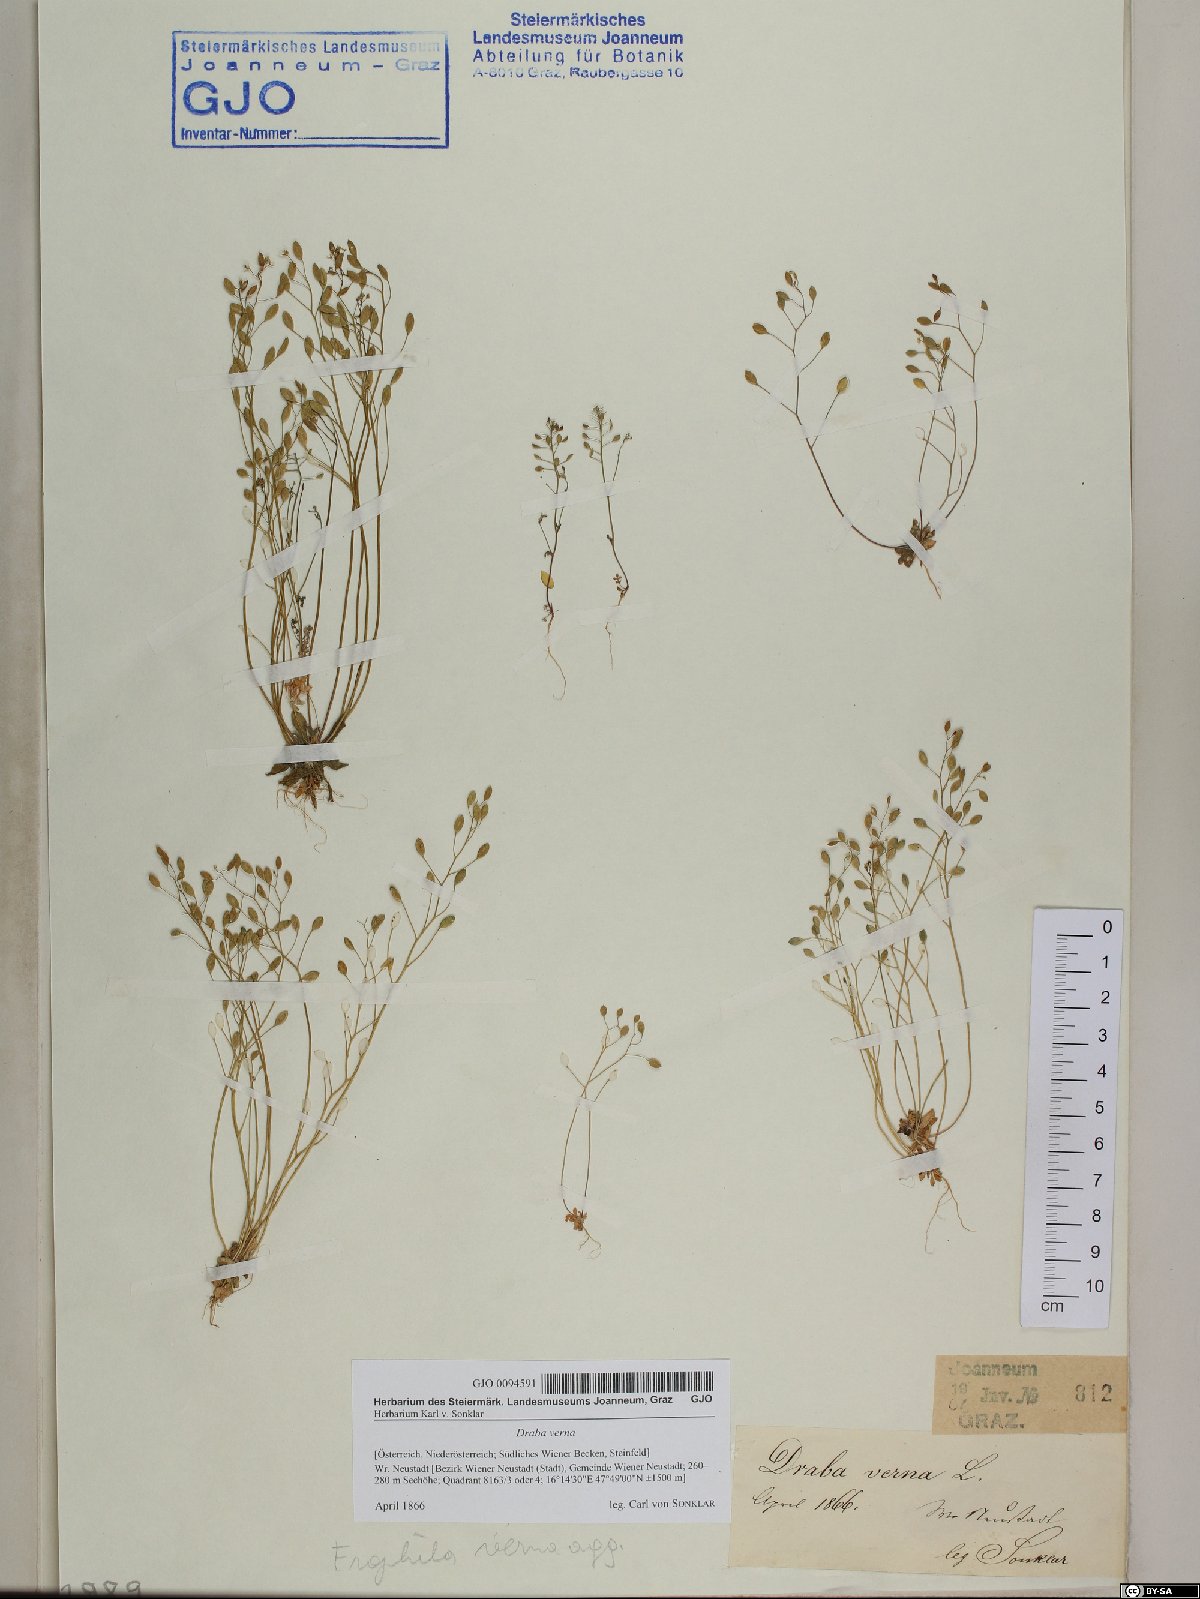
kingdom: Plantae
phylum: Tracheophyta
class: Magnoliopsida
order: Brassicales
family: Brassicaceae
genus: Draba
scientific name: Draba verna
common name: Spring draba
